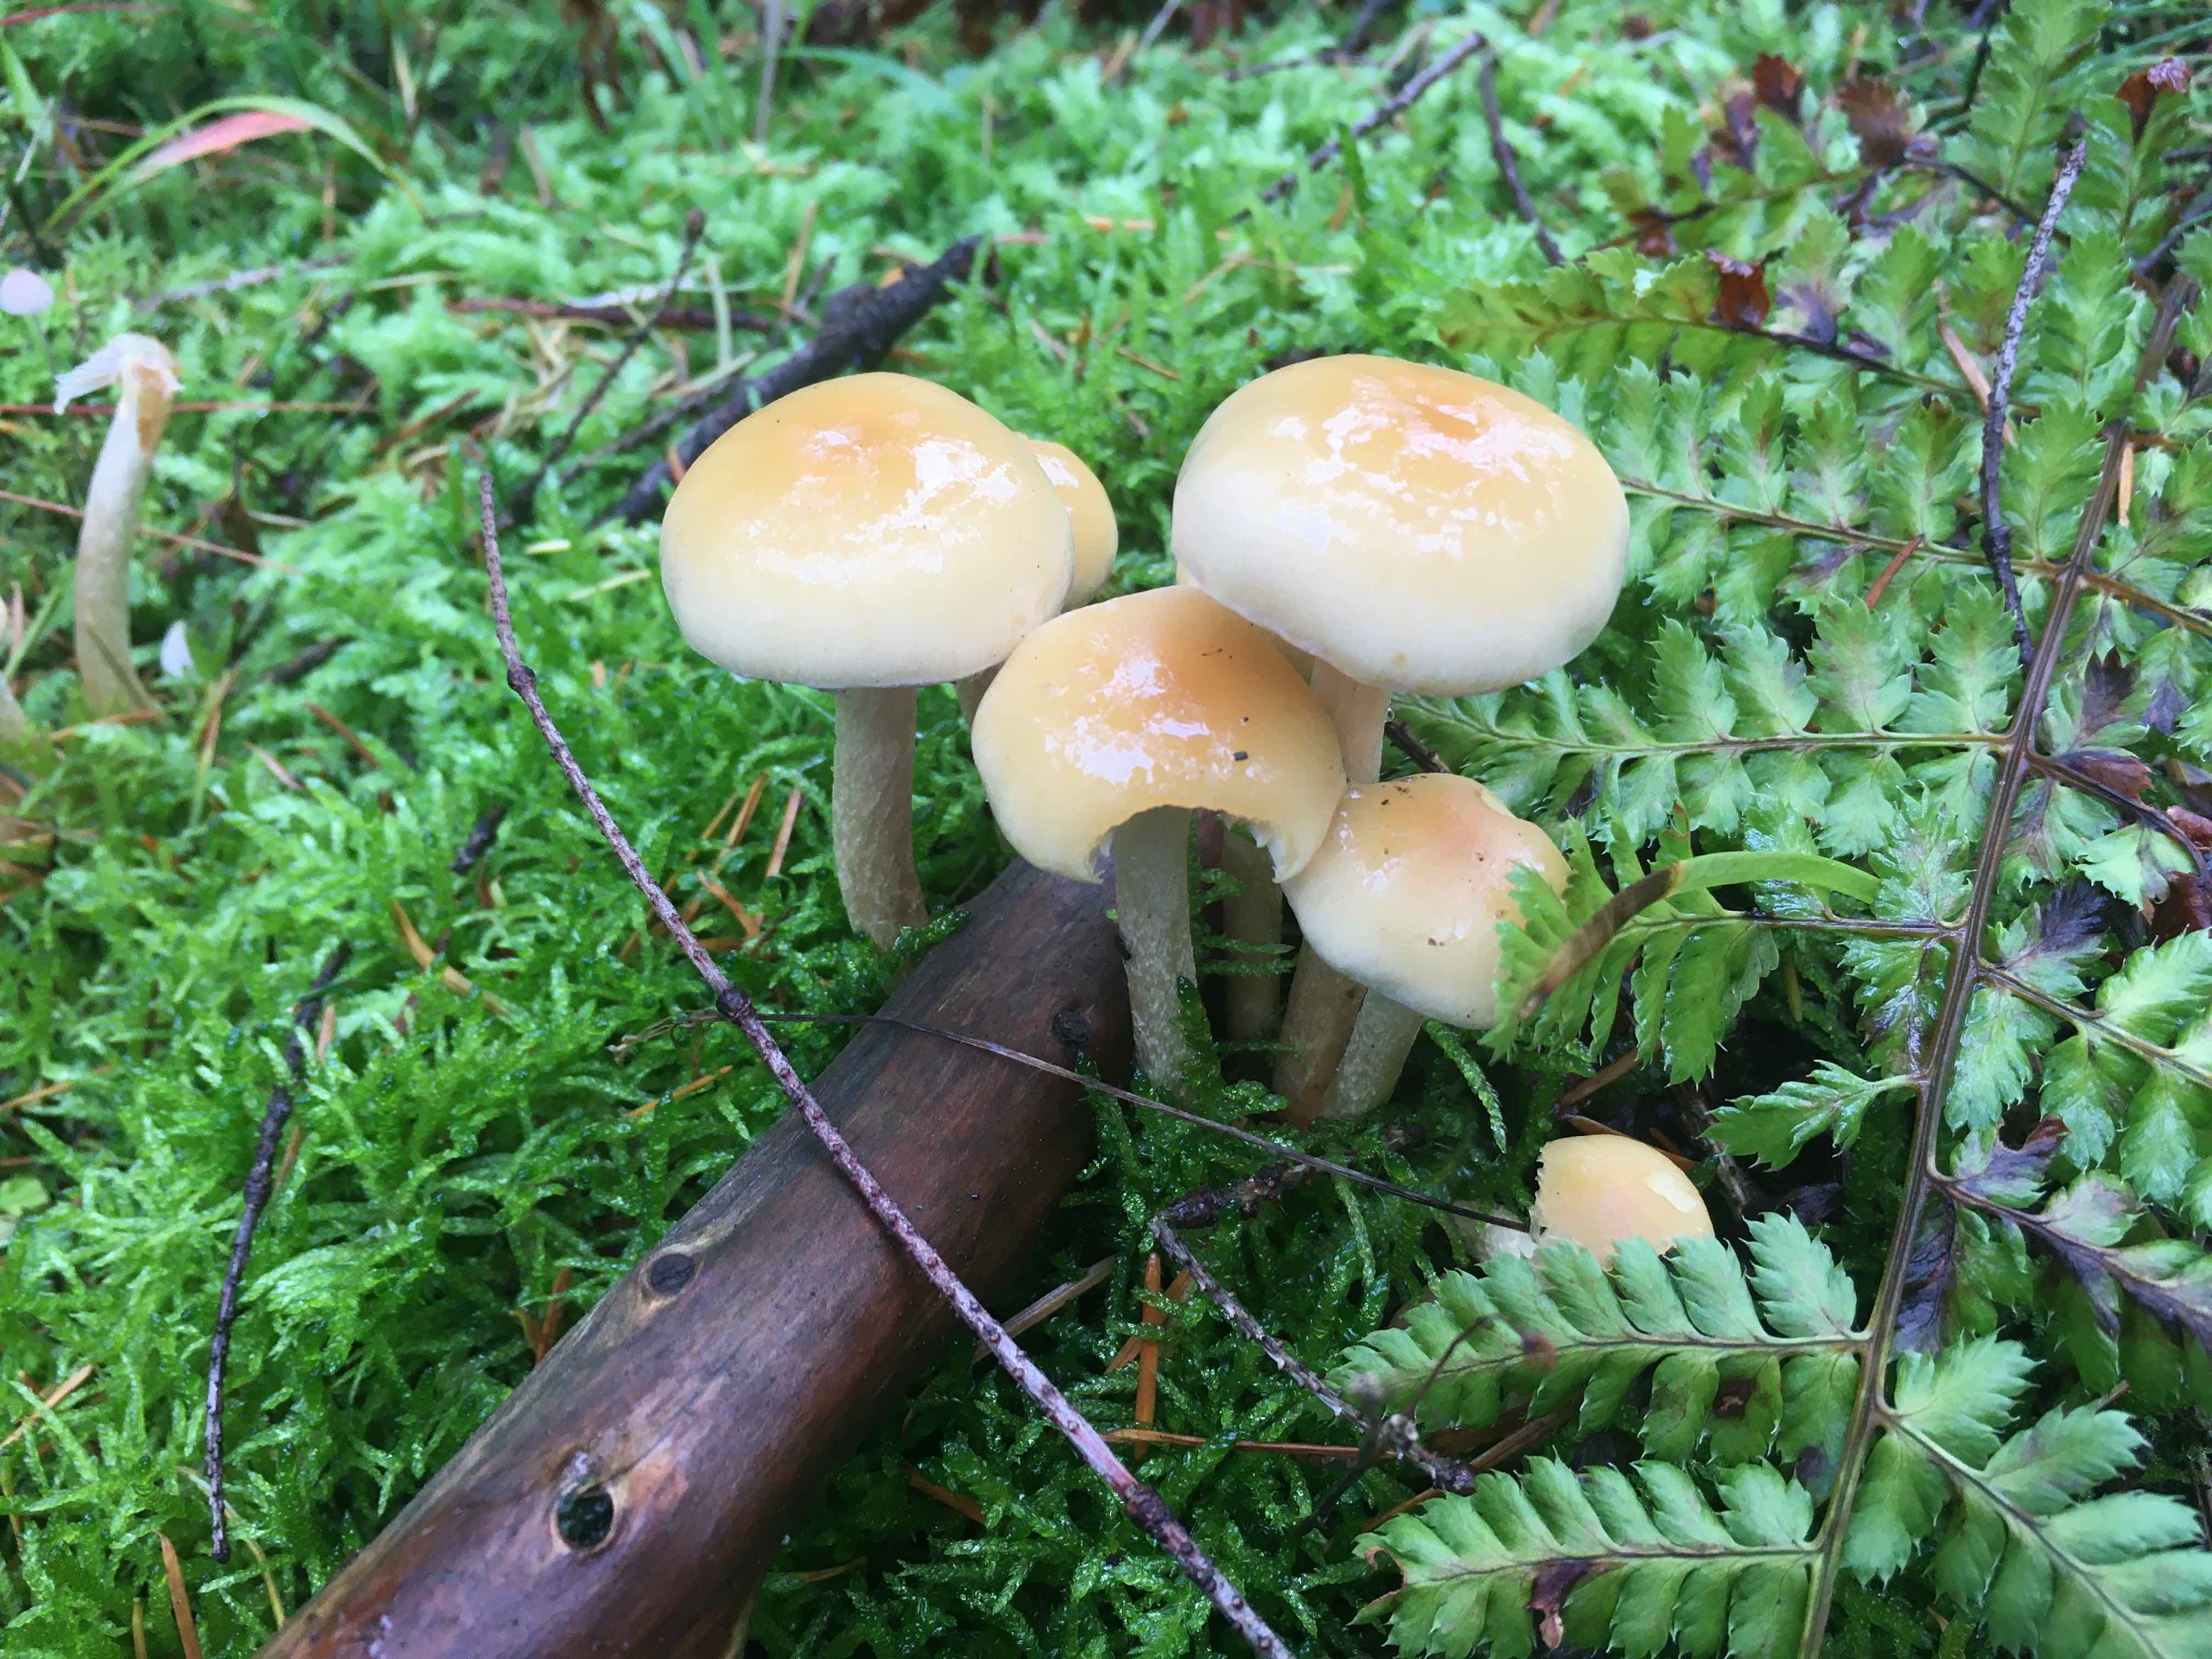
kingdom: Fungi
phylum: Basidiomycota
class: Agaricomycetes
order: Agaricales
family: Strophariaceae
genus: Hypholoma
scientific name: Hypholoma capnoides
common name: gran-svovlhat
